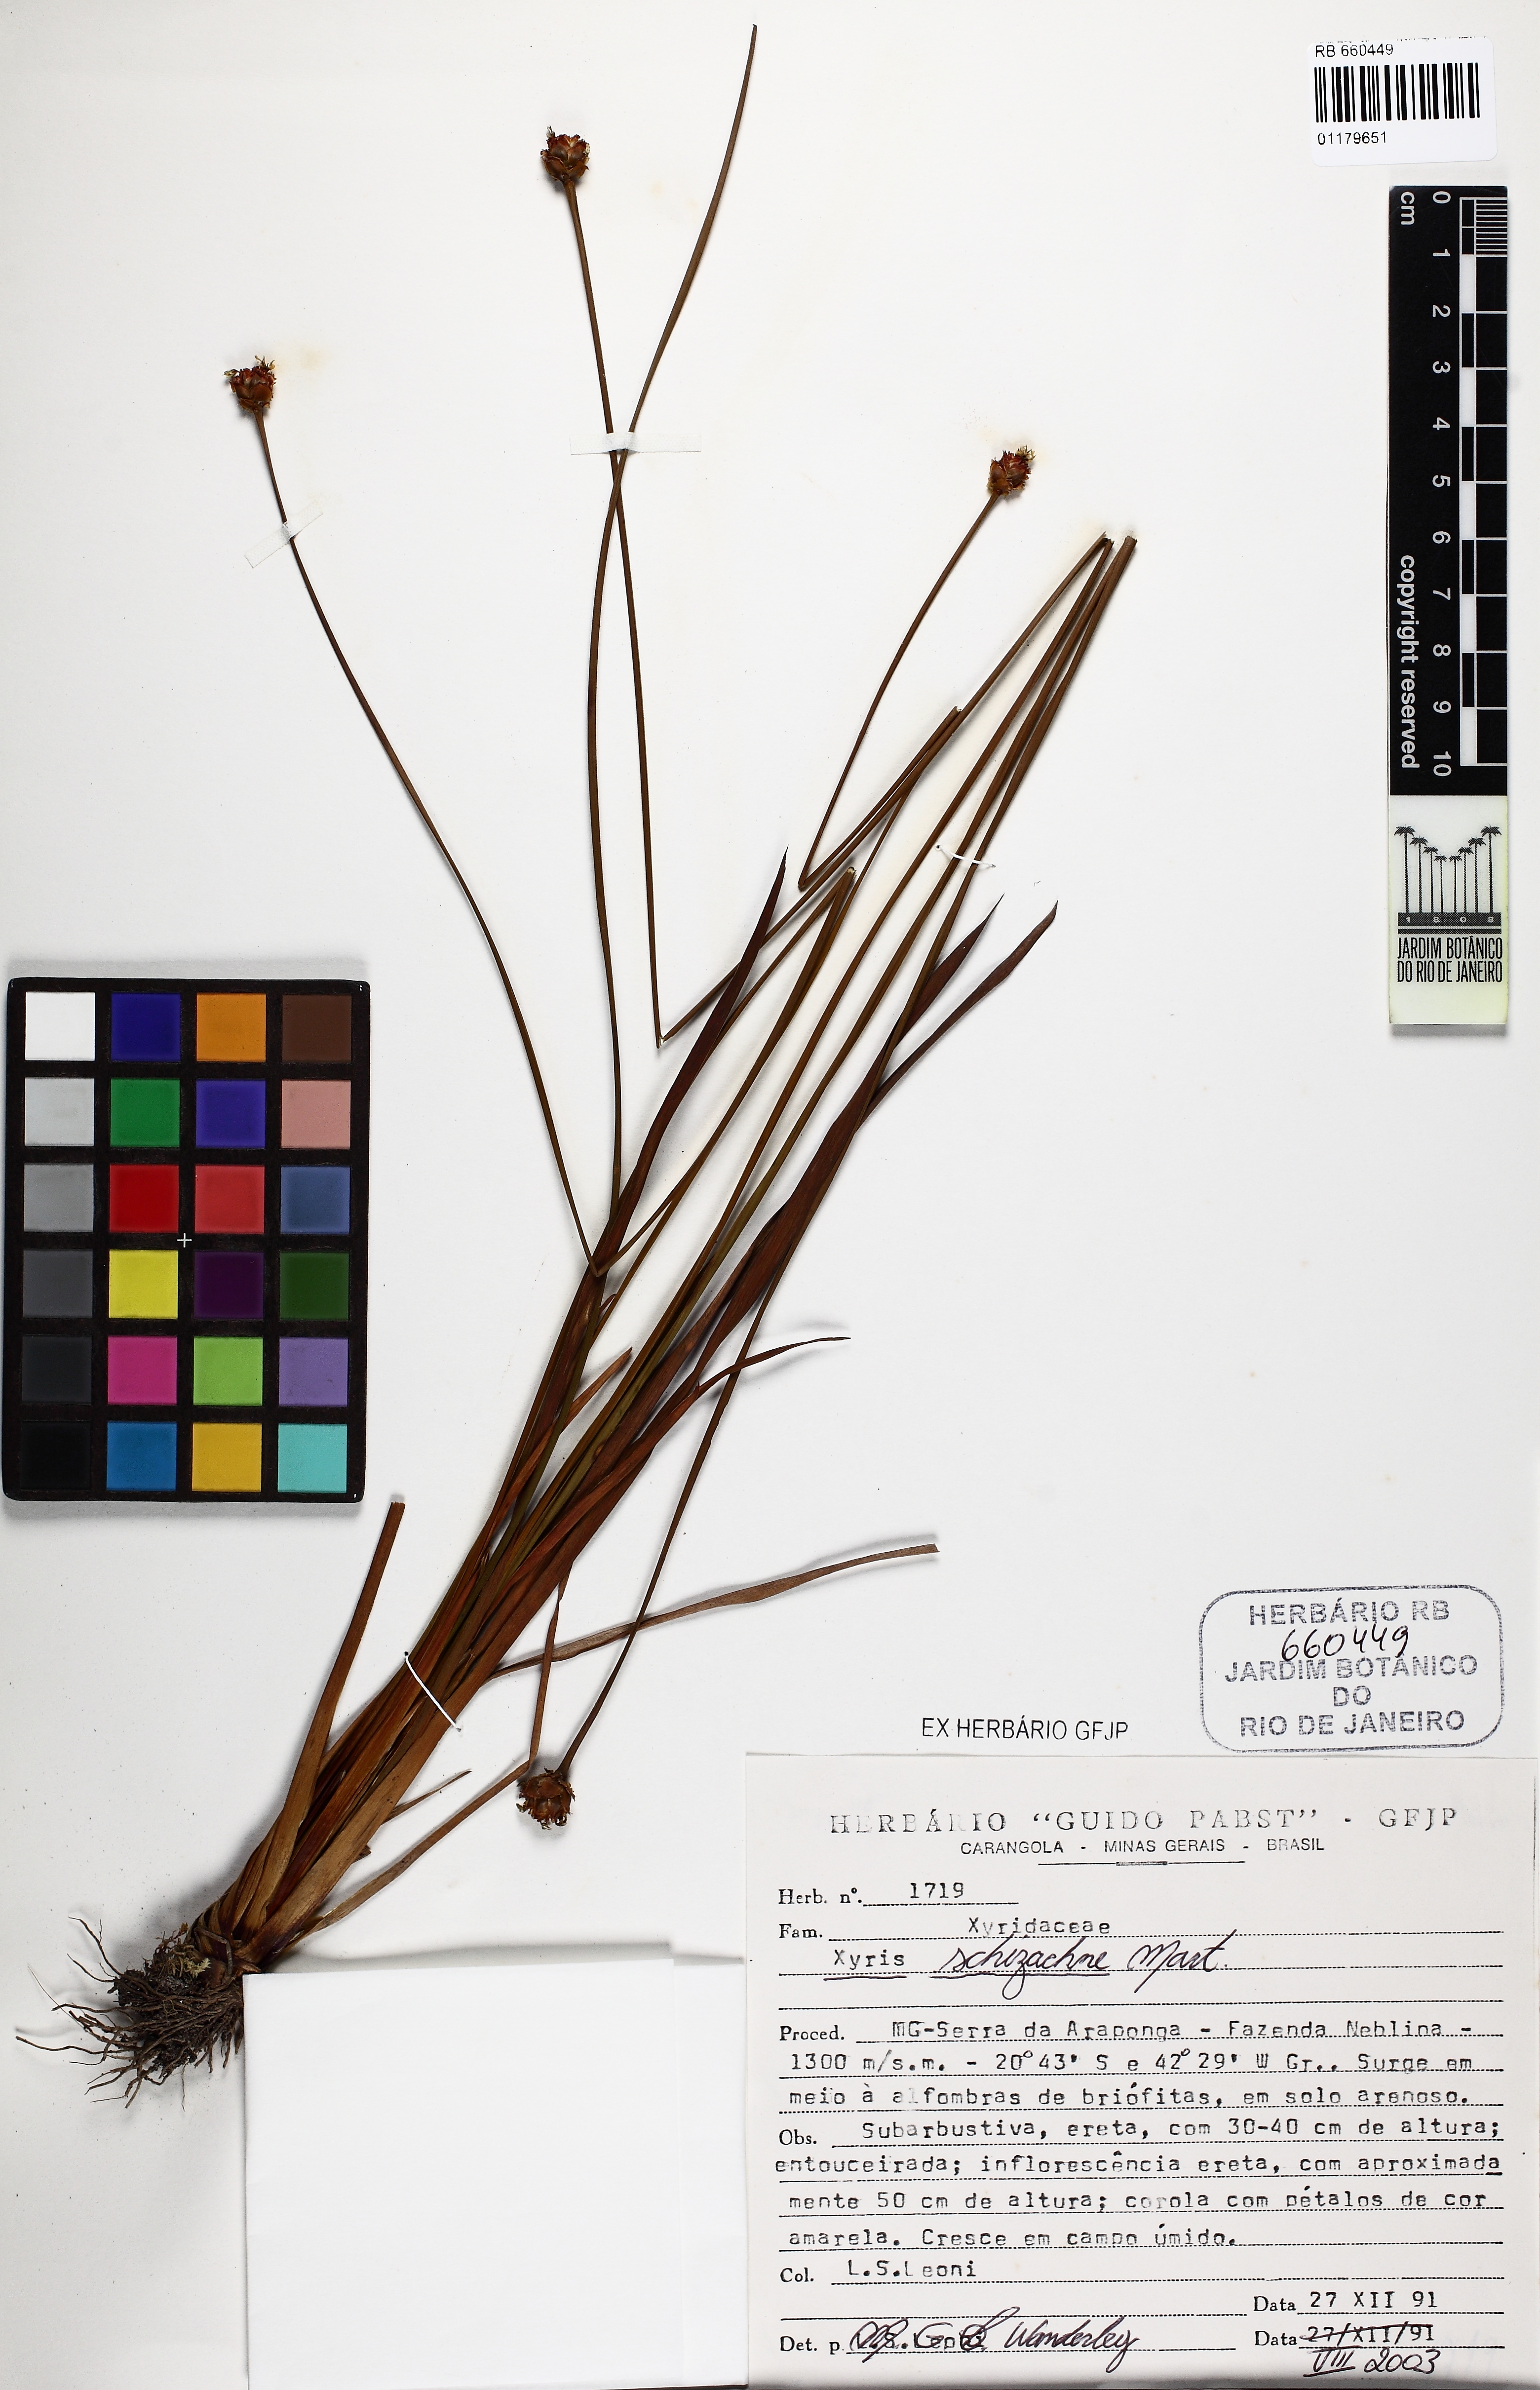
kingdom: Plantae
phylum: Tracheophyta
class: Liliopsida
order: Poales
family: Xyridaceae
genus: Xyris
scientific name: Xyris schizachne
